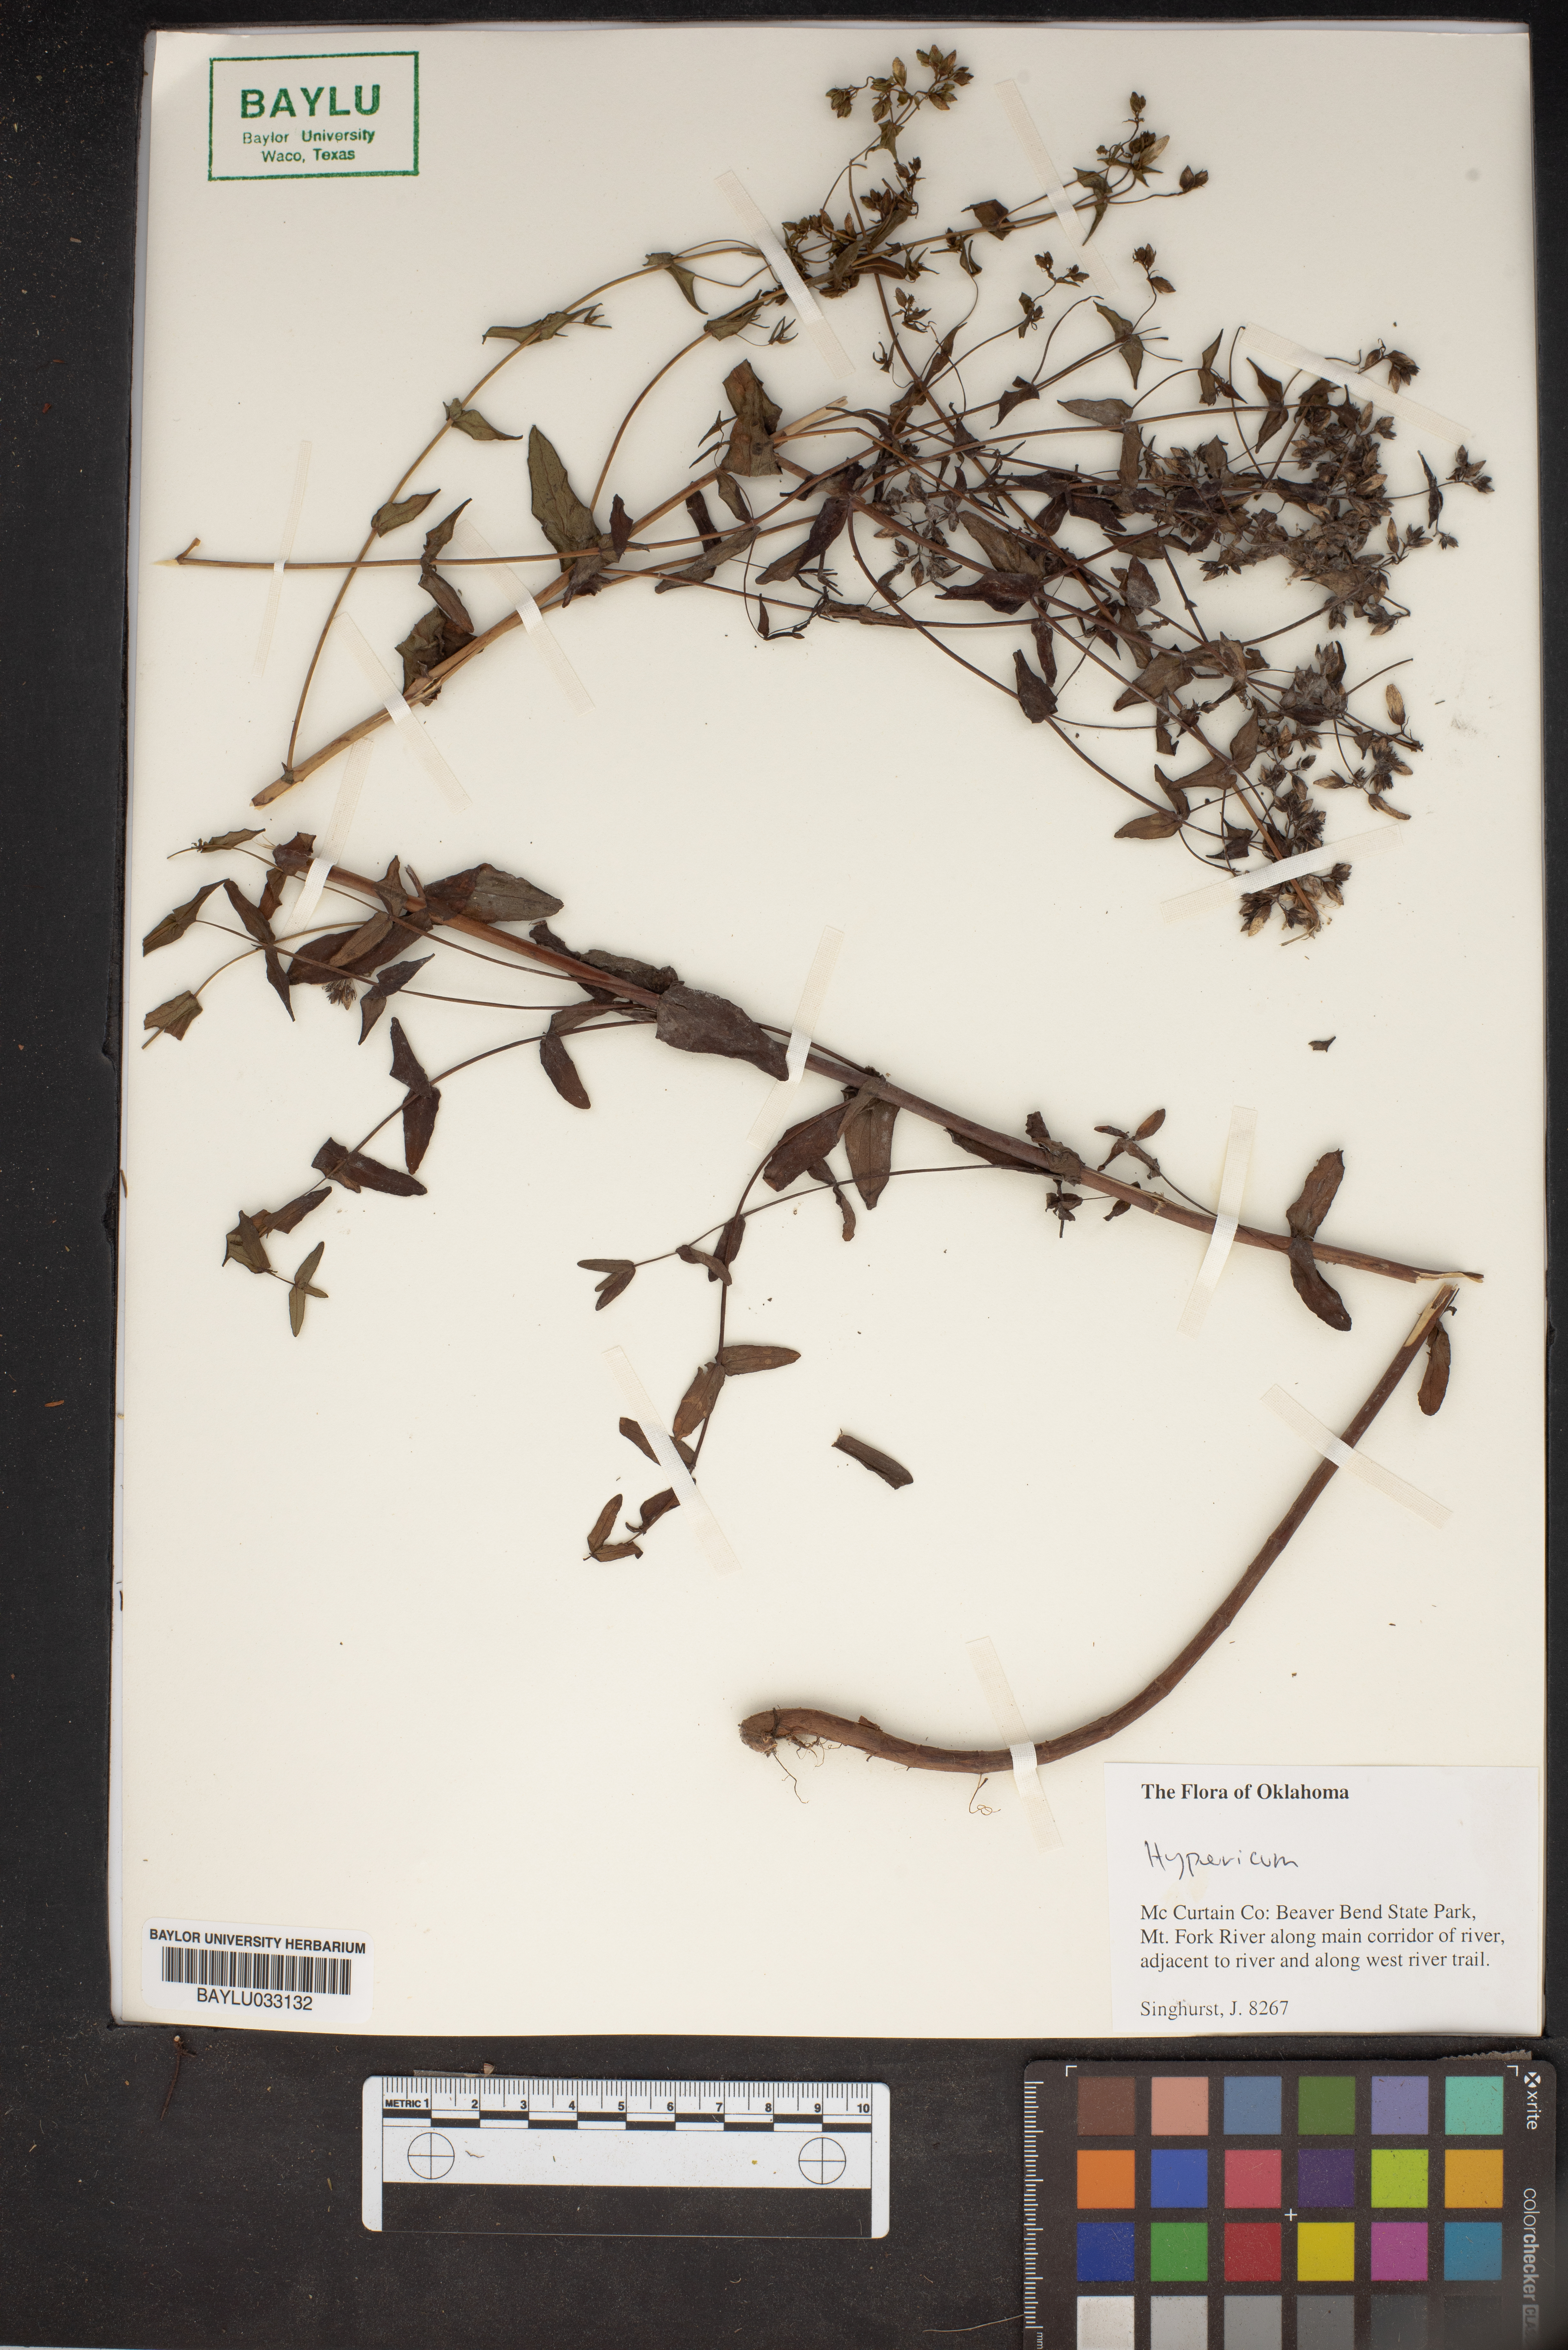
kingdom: Plantae
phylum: Tracheophyta
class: Magnoliopsida
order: Malpighiales
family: Hypericaceae
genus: Hypericum
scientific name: Hypericum
